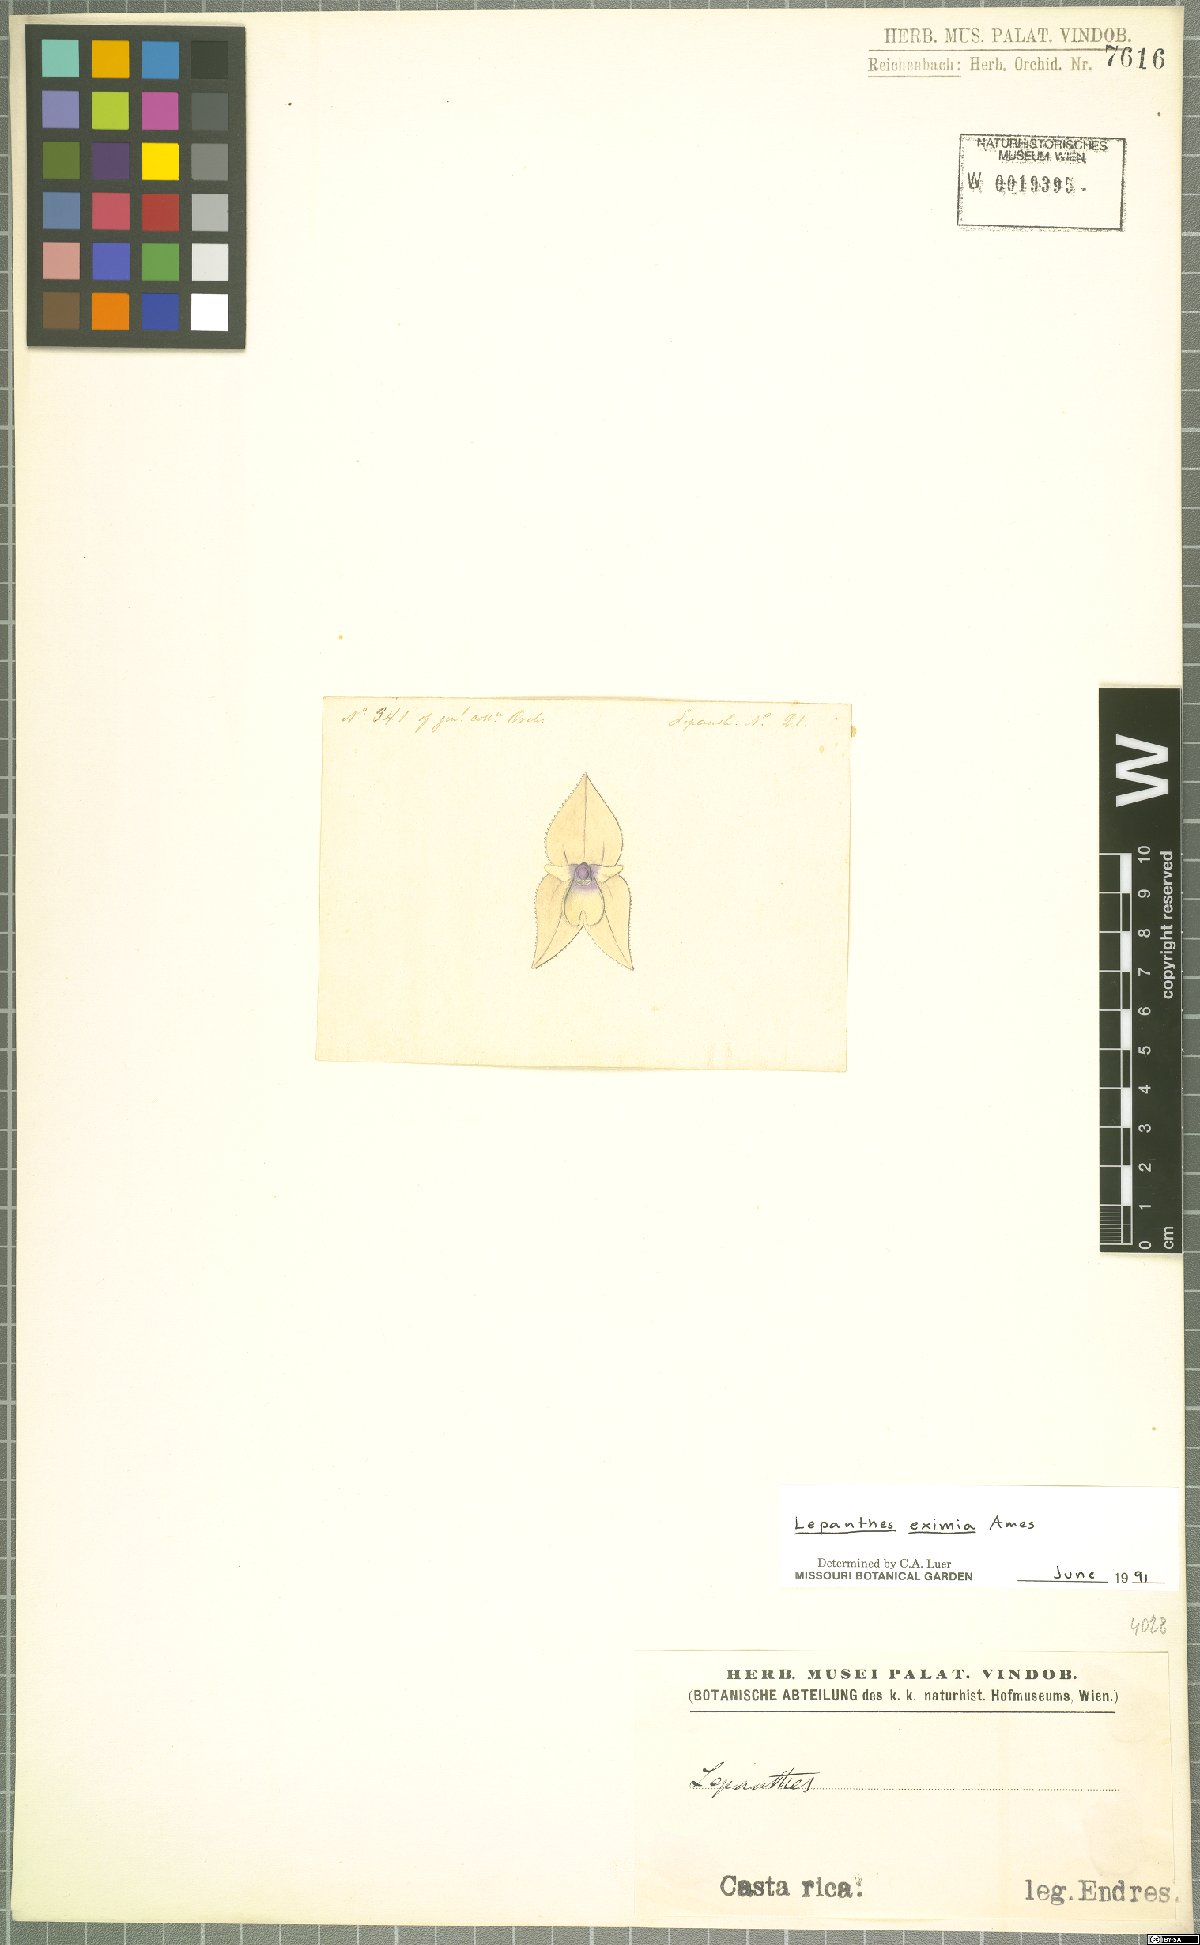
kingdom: Plantae
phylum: Tracheophyta
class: Liliopsida
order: Asparagales
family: Orchidaceae
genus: Lepanthes
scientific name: Lepanthes eximia
